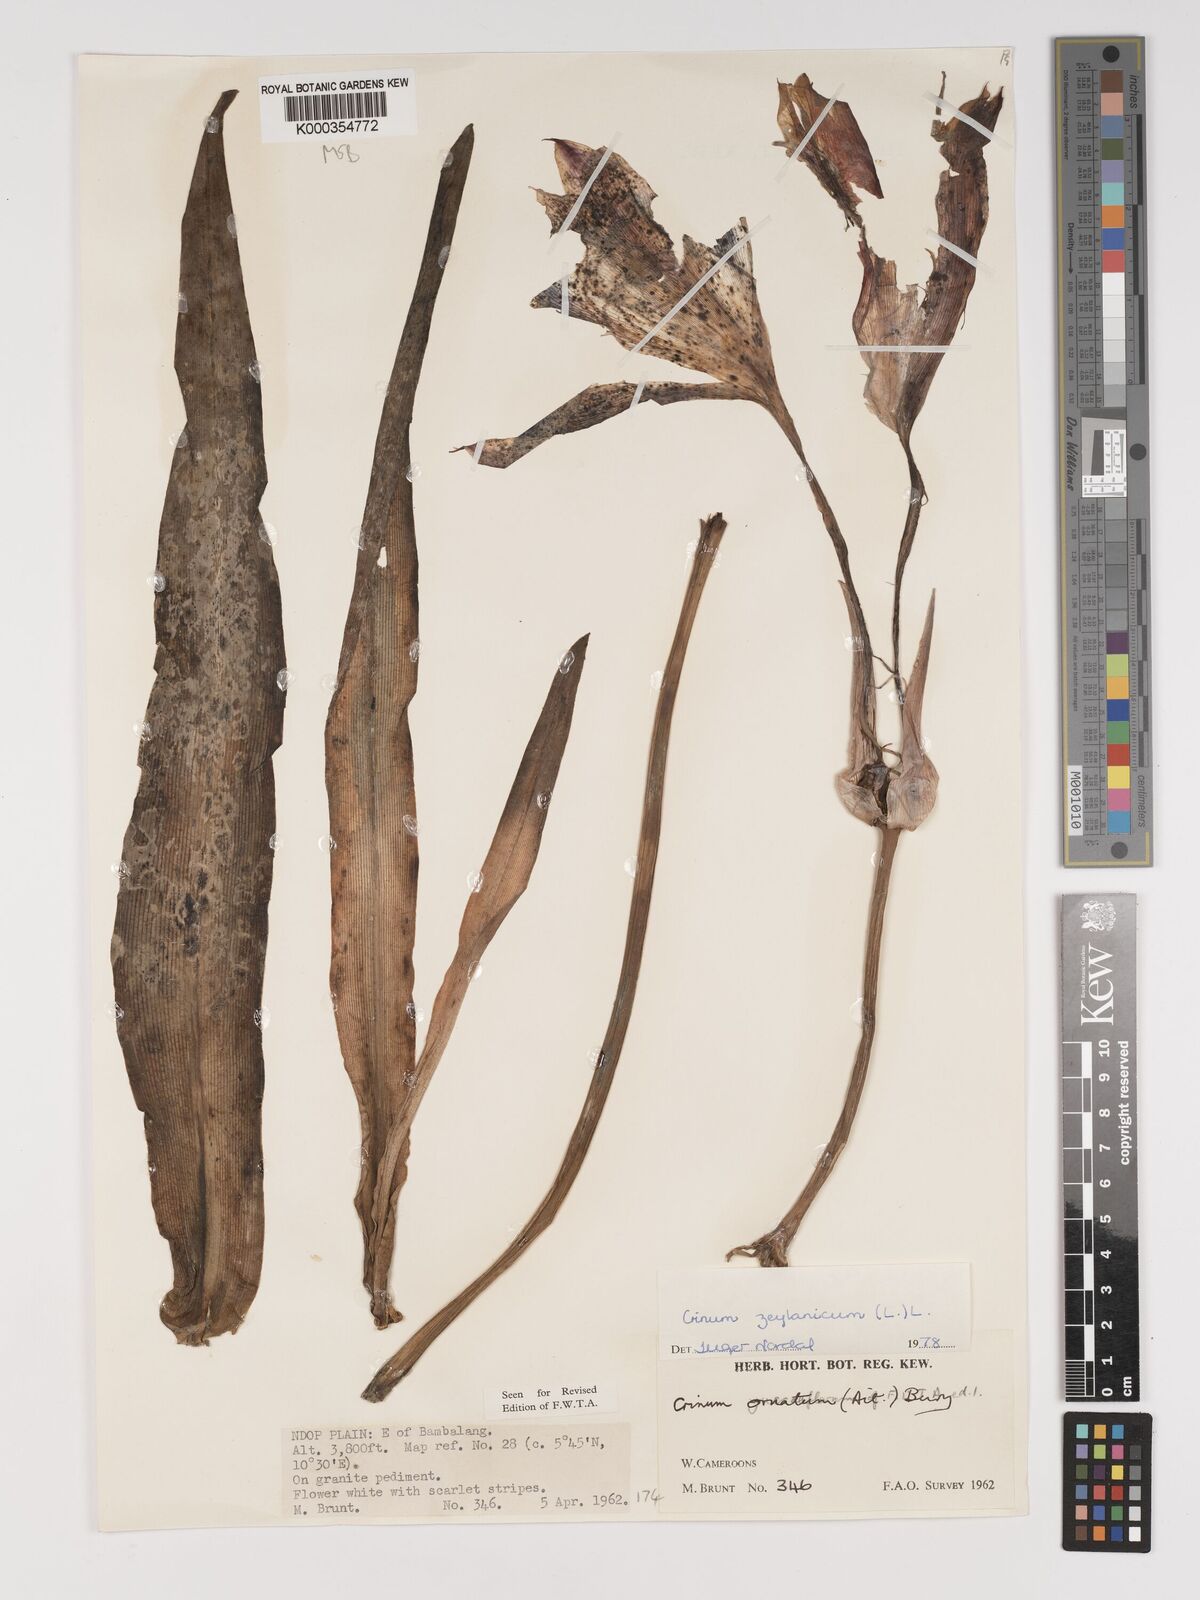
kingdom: Plantae
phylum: Tracheophyta
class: Liliopsida
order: Asparagales
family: Amaryllidaceae
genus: Crinum
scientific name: Crinum zeylanicum
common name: Ceylon swamplily
